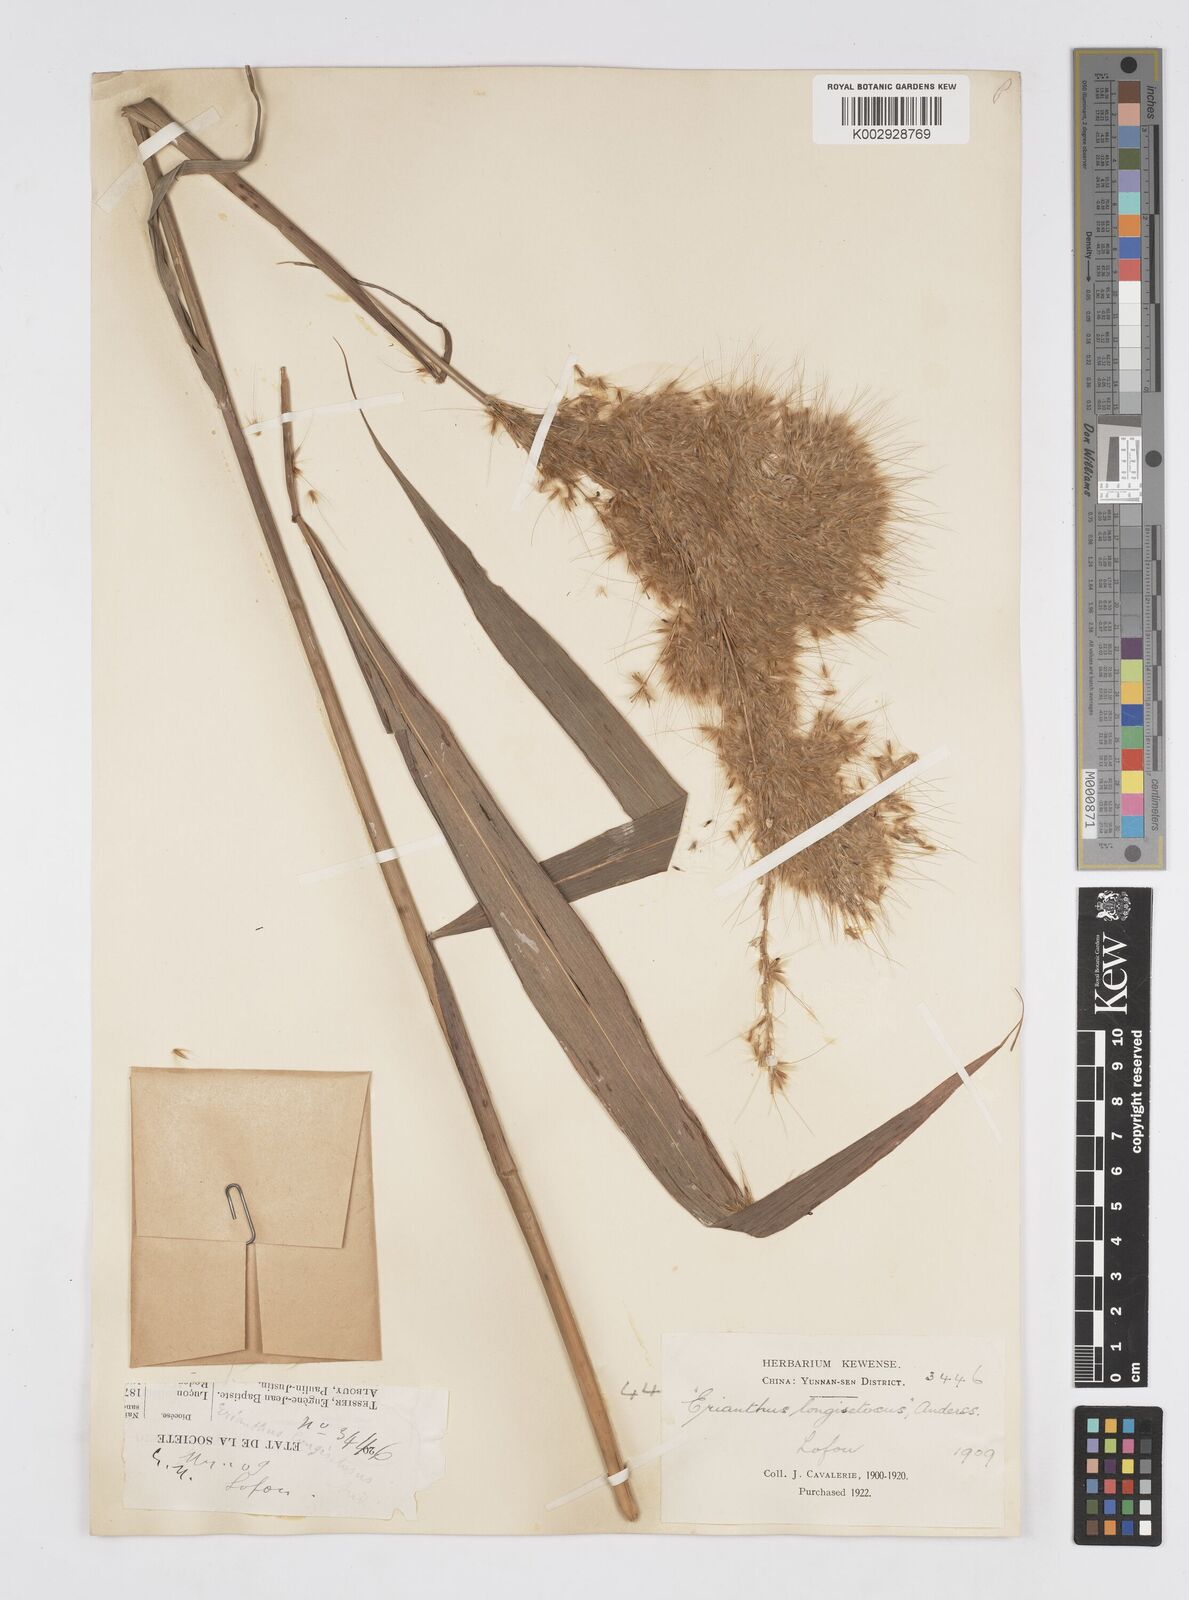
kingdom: Plantae
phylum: Tracheophyta
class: Liliopsida
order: Poales
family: Poaceae
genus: Melinis
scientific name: Melinis longiseta
